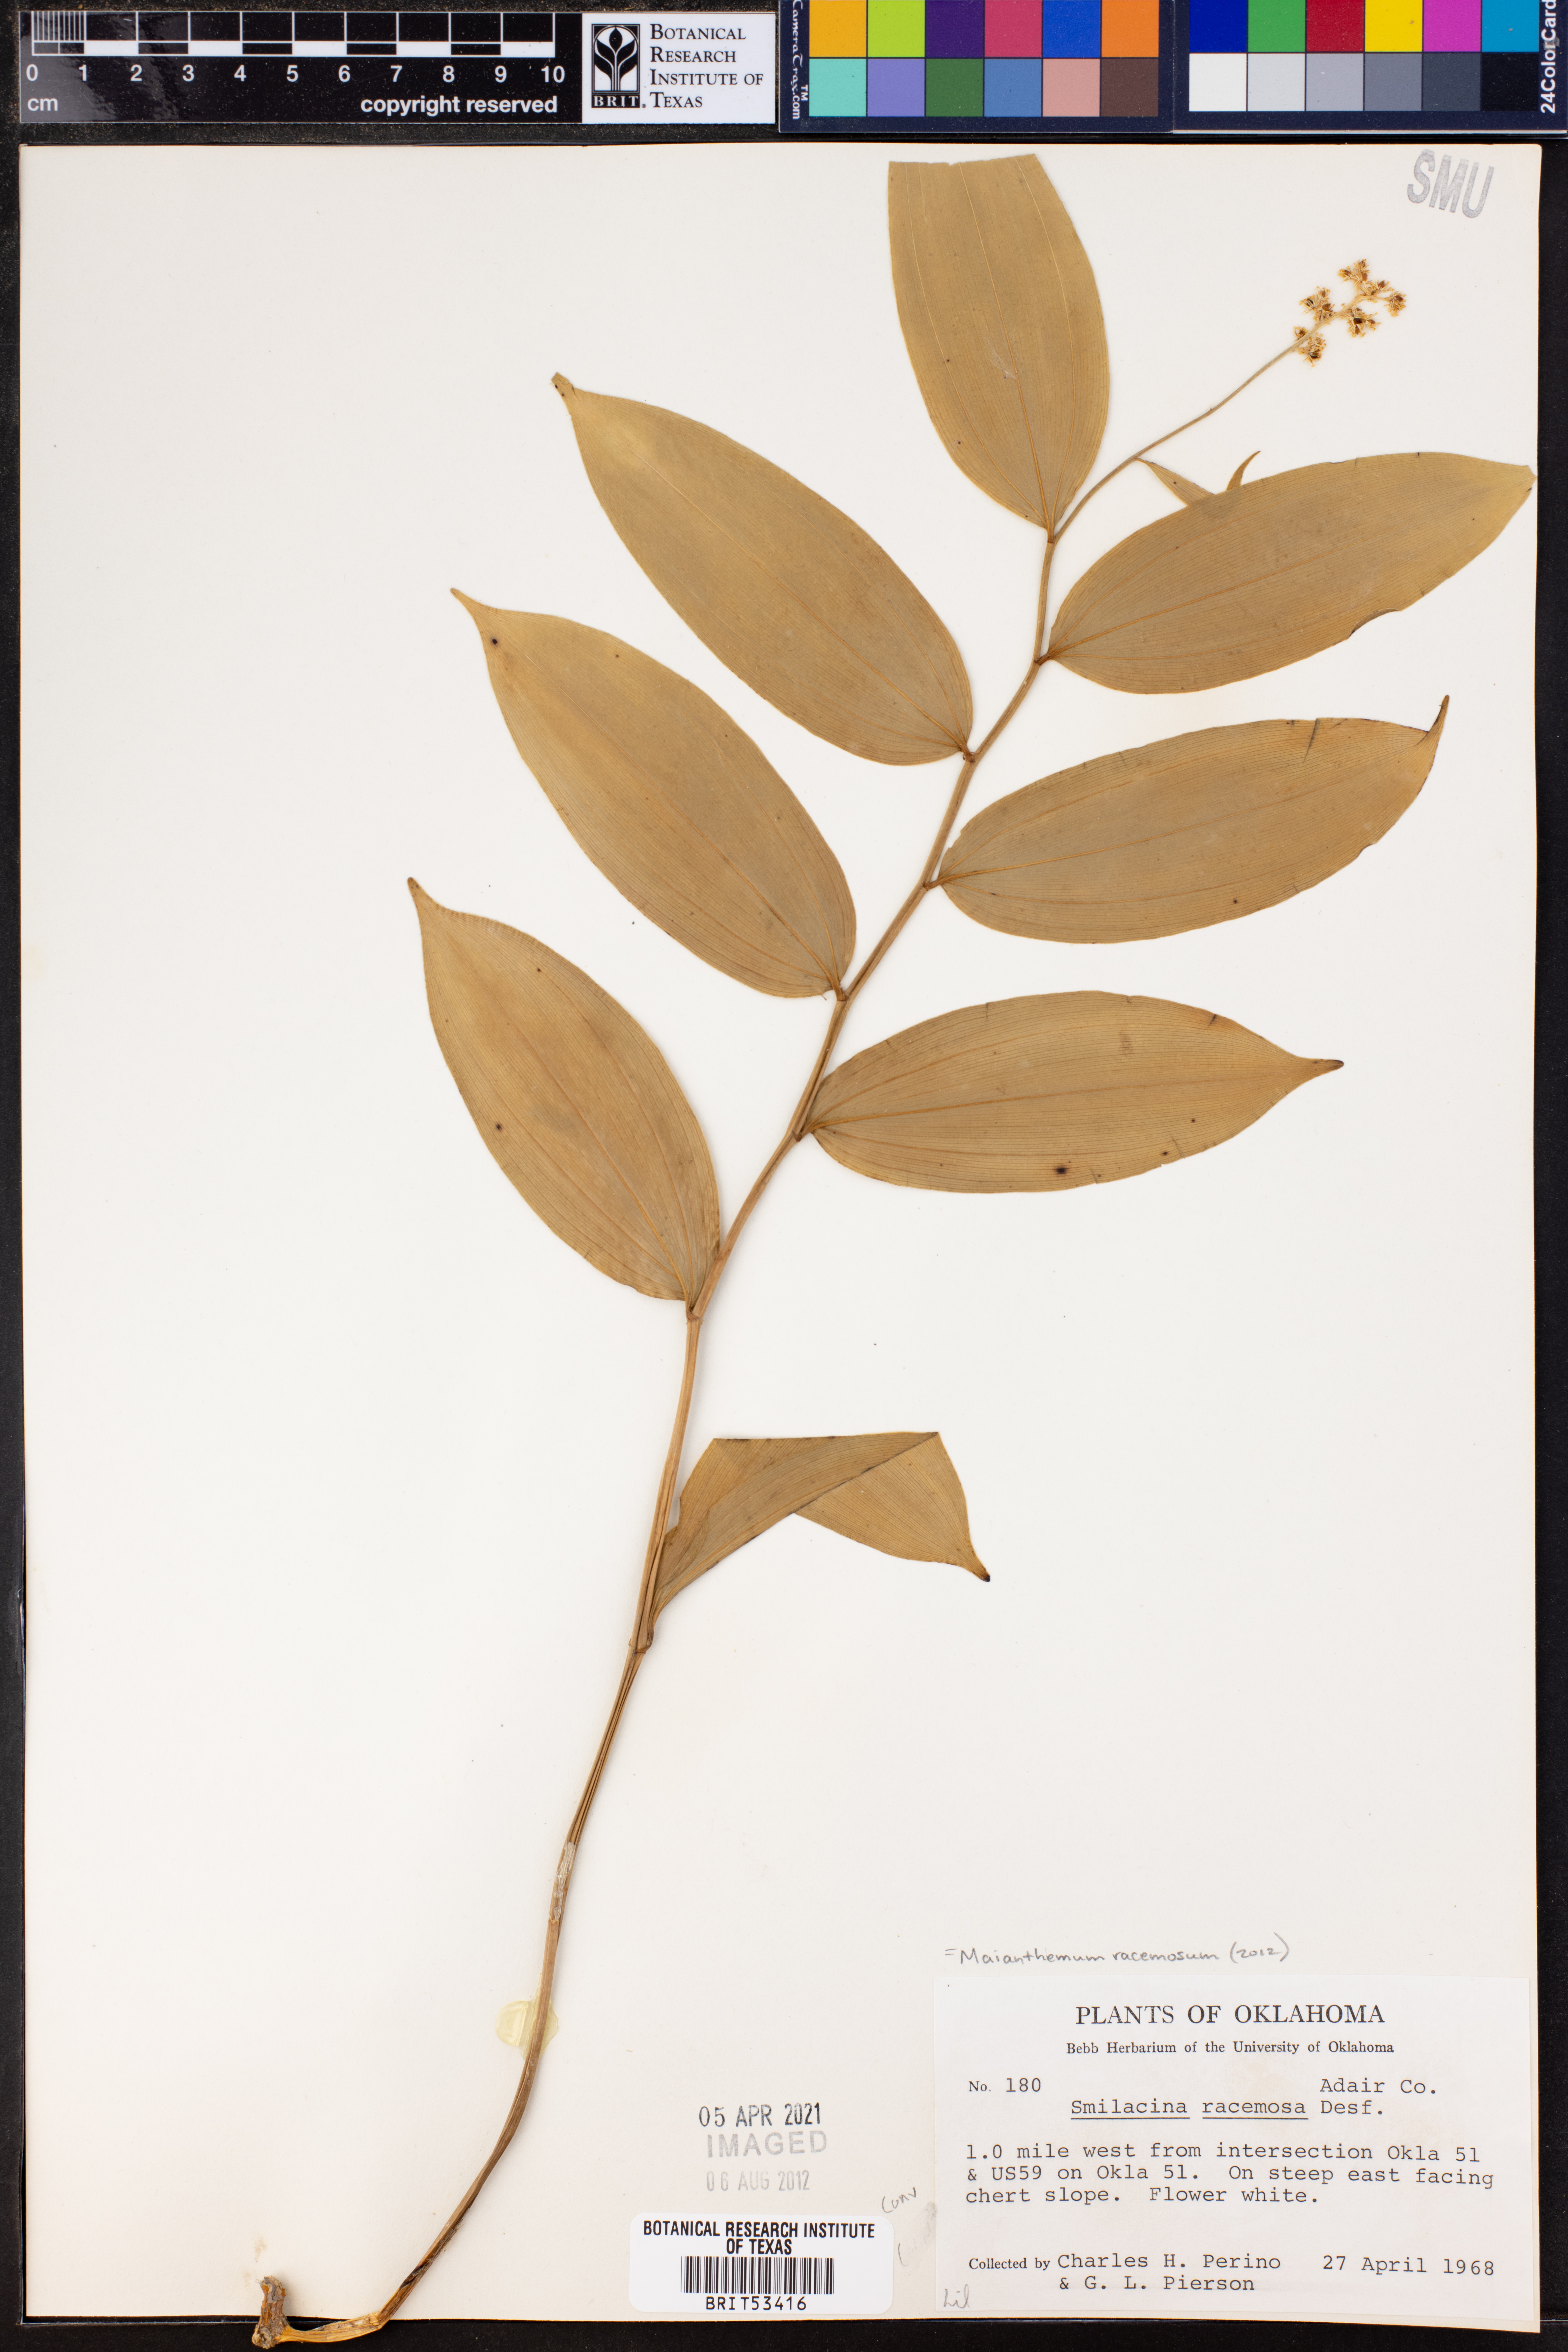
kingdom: Plantae
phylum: Tracheophyta
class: Liliopsida
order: Asparagales
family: Asparagaceae
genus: Maianthemum
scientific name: Maianthemum racemosum
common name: False spikenard
